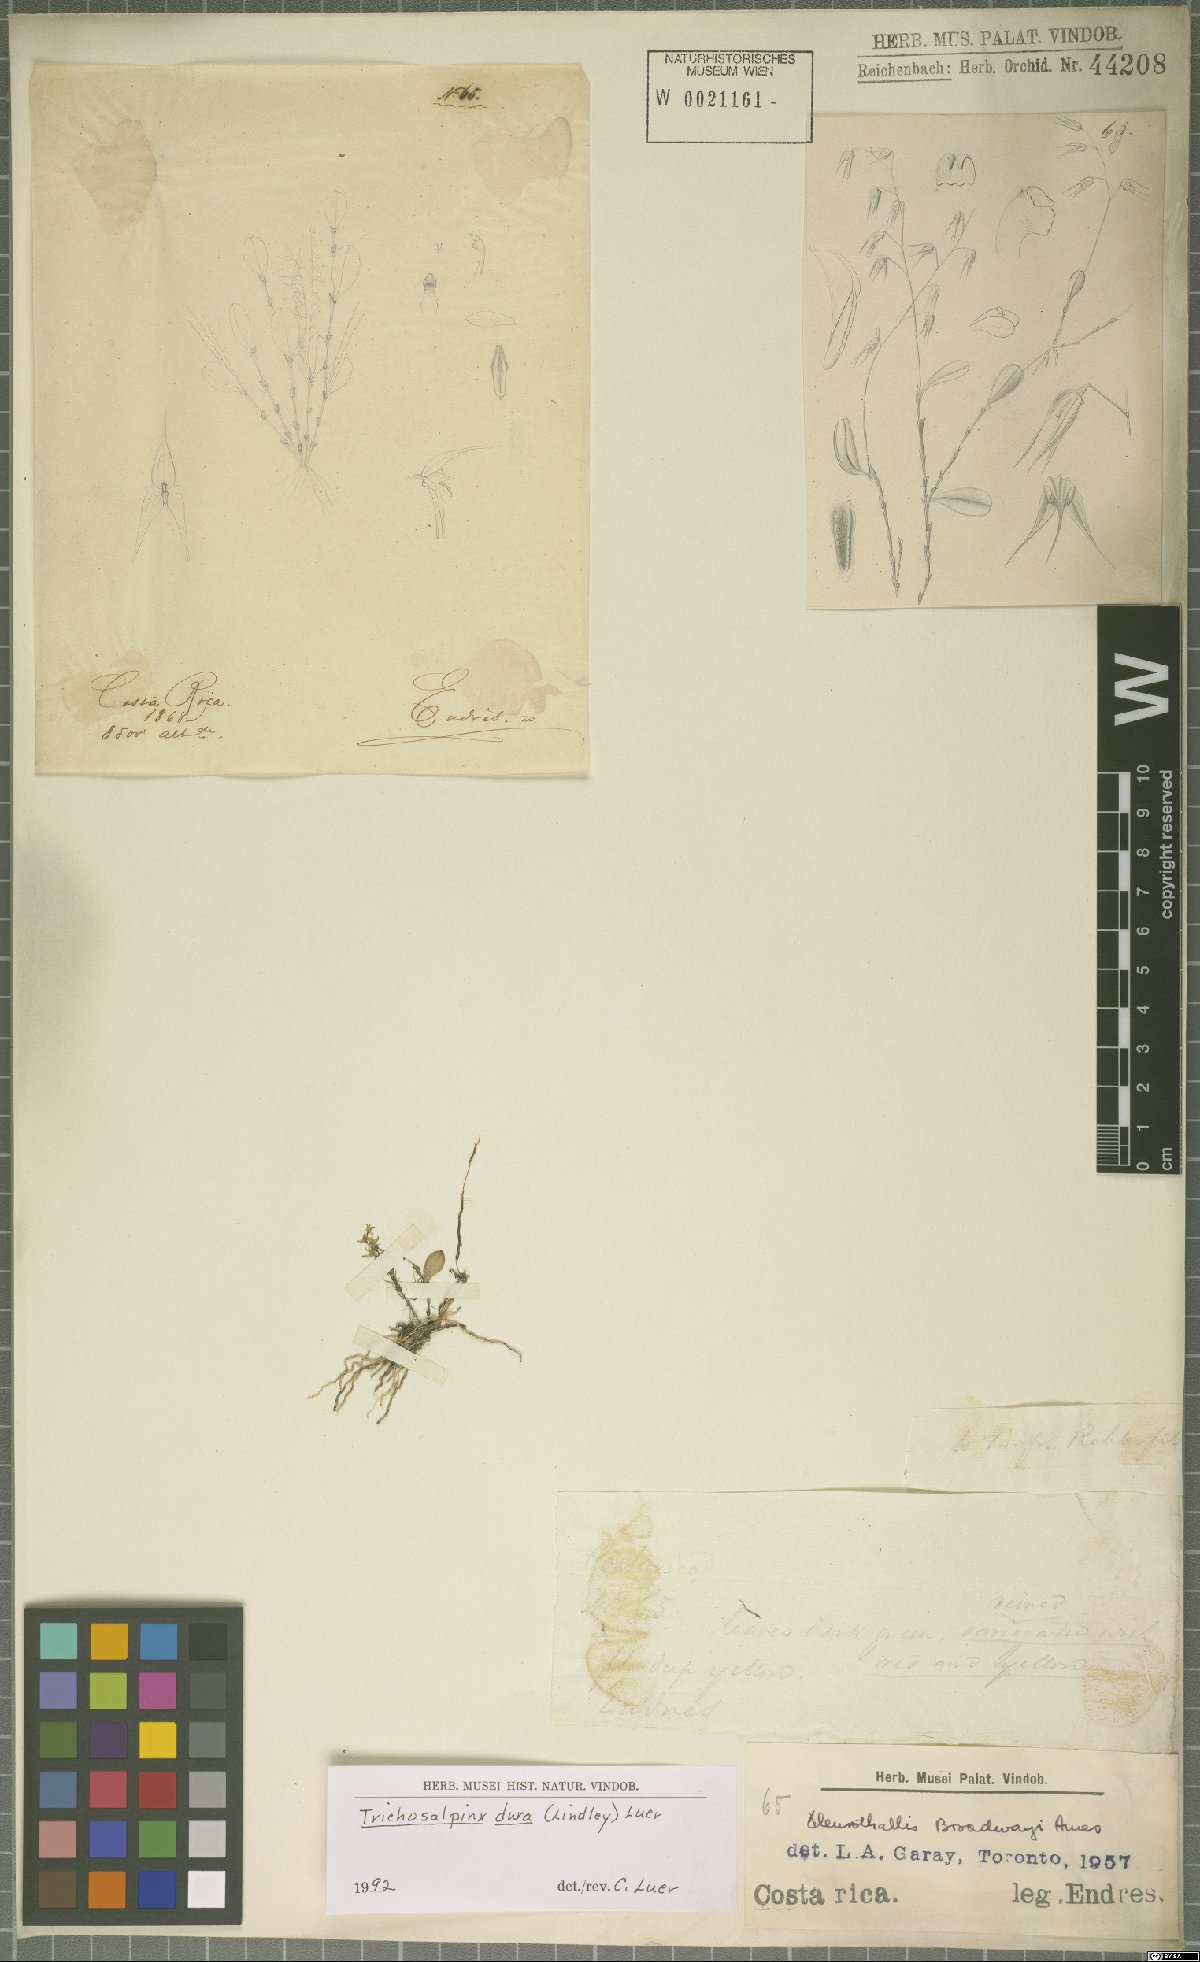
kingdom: Plantae
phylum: Tracheophyta
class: Liliopsida
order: Asparagales
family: Orchidaceae
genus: Trichosalpinx
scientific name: Trichosalpinx dura
